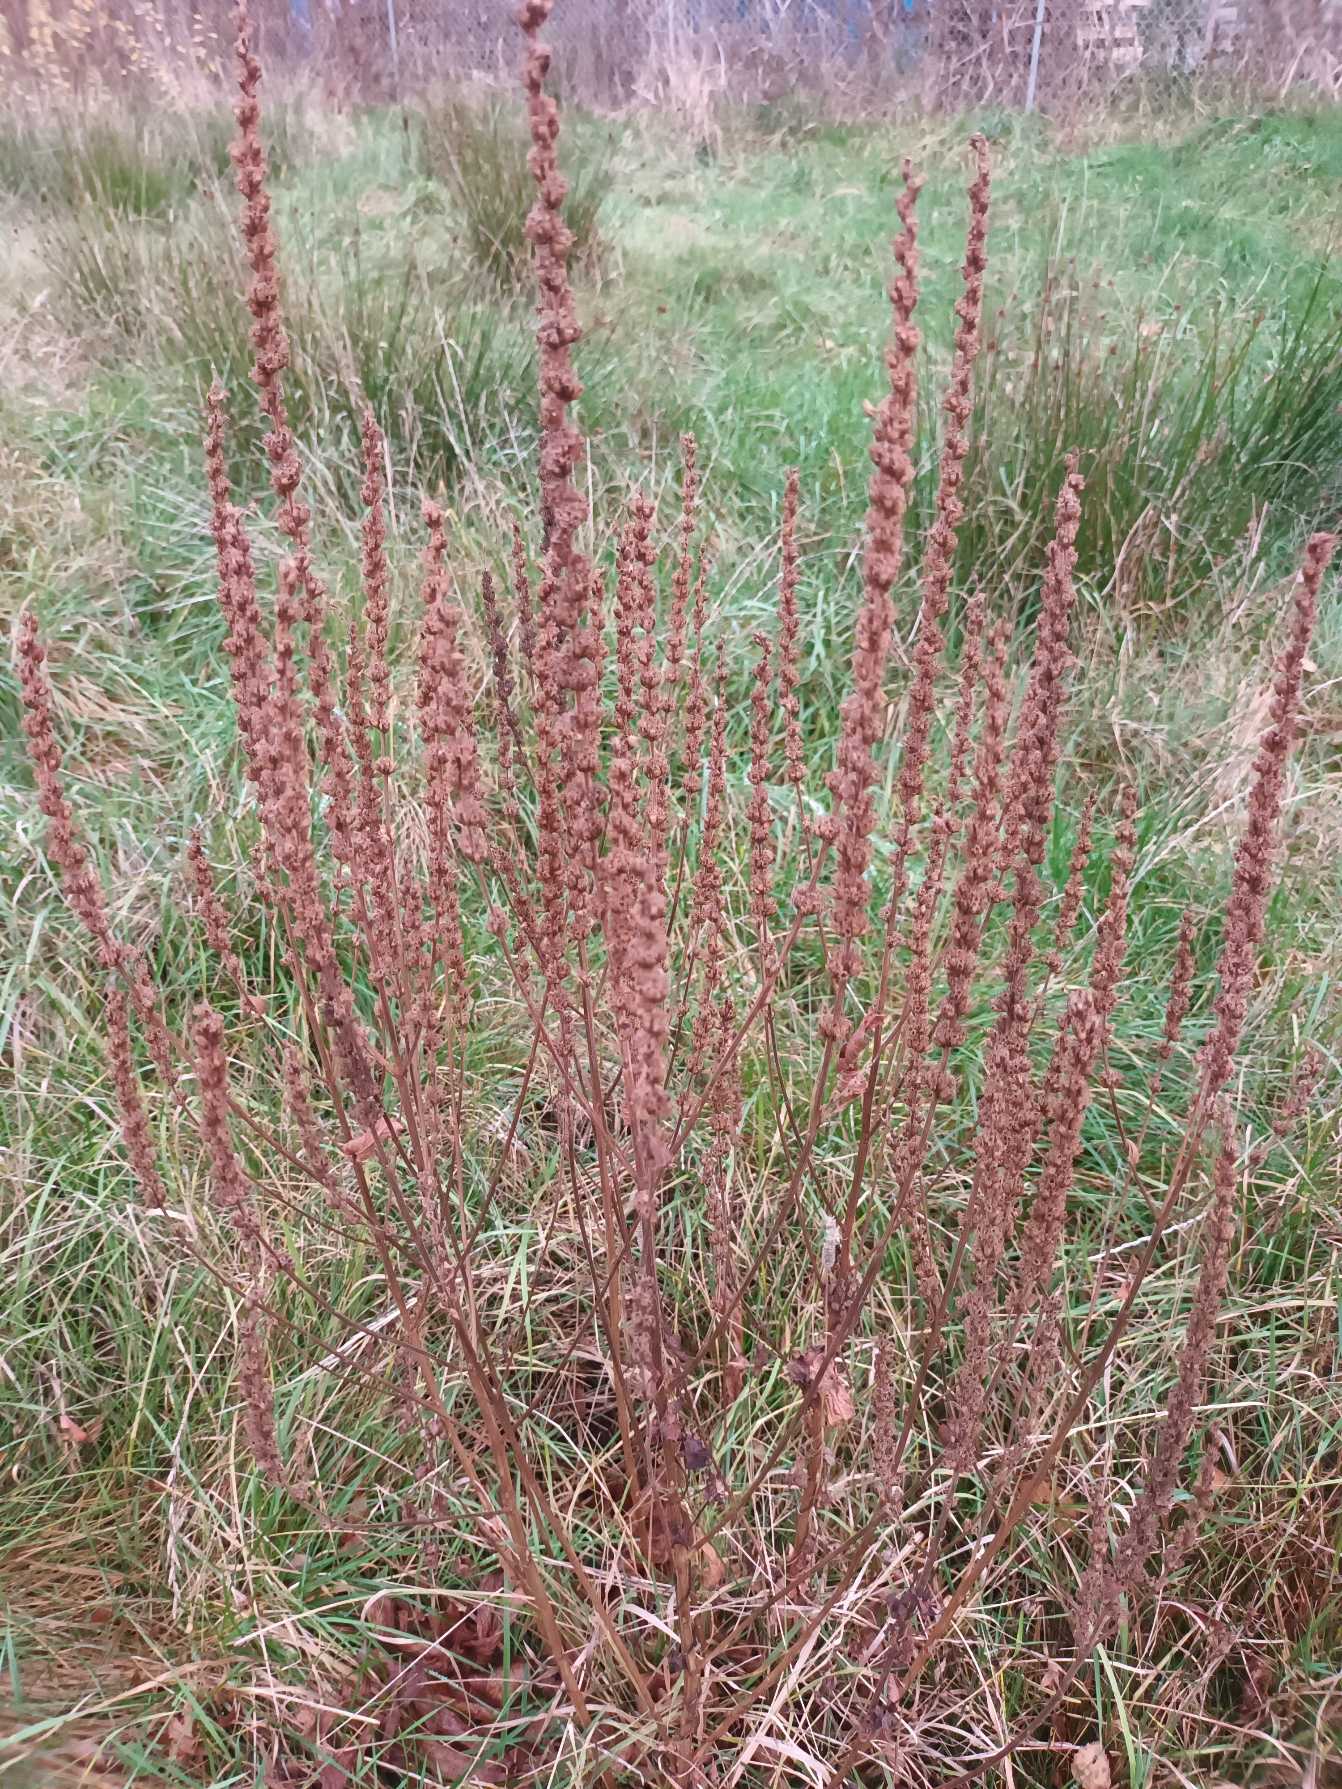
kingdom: Plantae
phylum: Tracheophyta
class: Magnoliopsida
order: Myrtales
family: Lythraceae
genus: Lythrum
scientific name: Lythrum salicaria
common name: Kattehale
